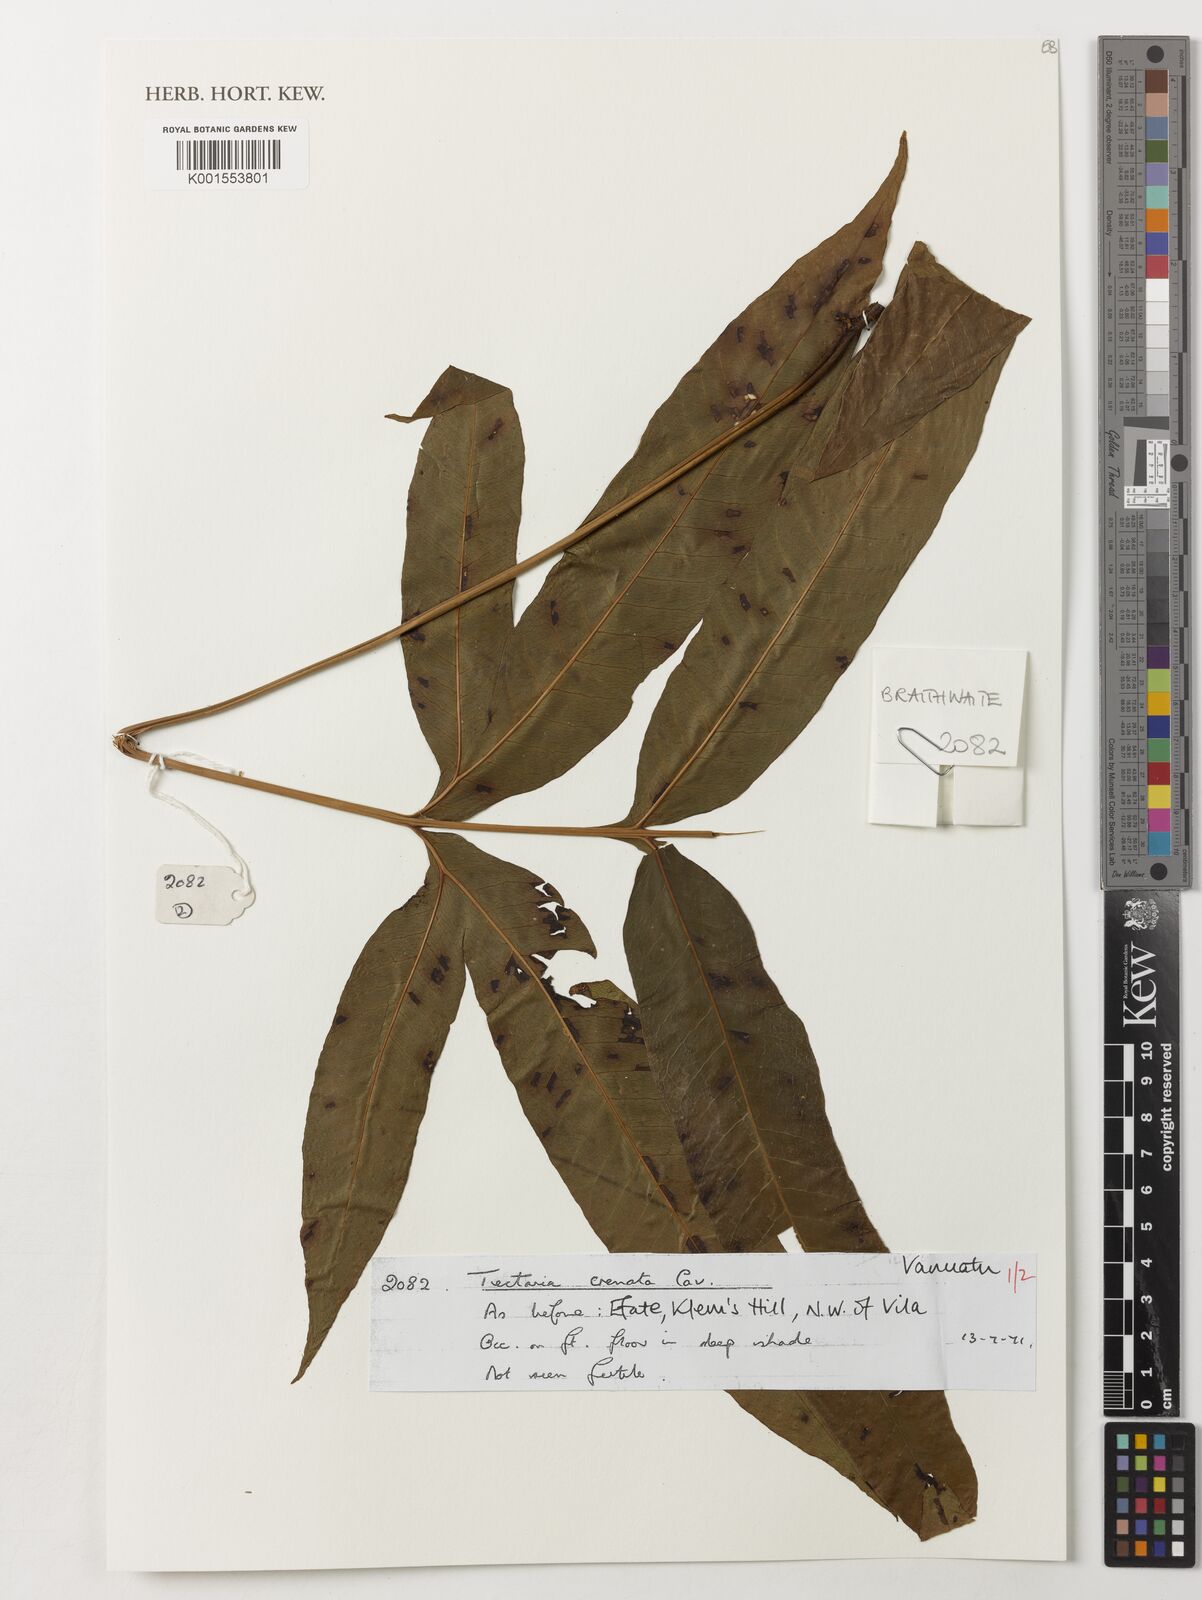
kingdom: Plantae
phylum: Tracheophyta
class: Polypodiopsida
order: Polypodiales
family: Tectariaceae
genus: Tectaria
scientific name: Tectaria crenata
